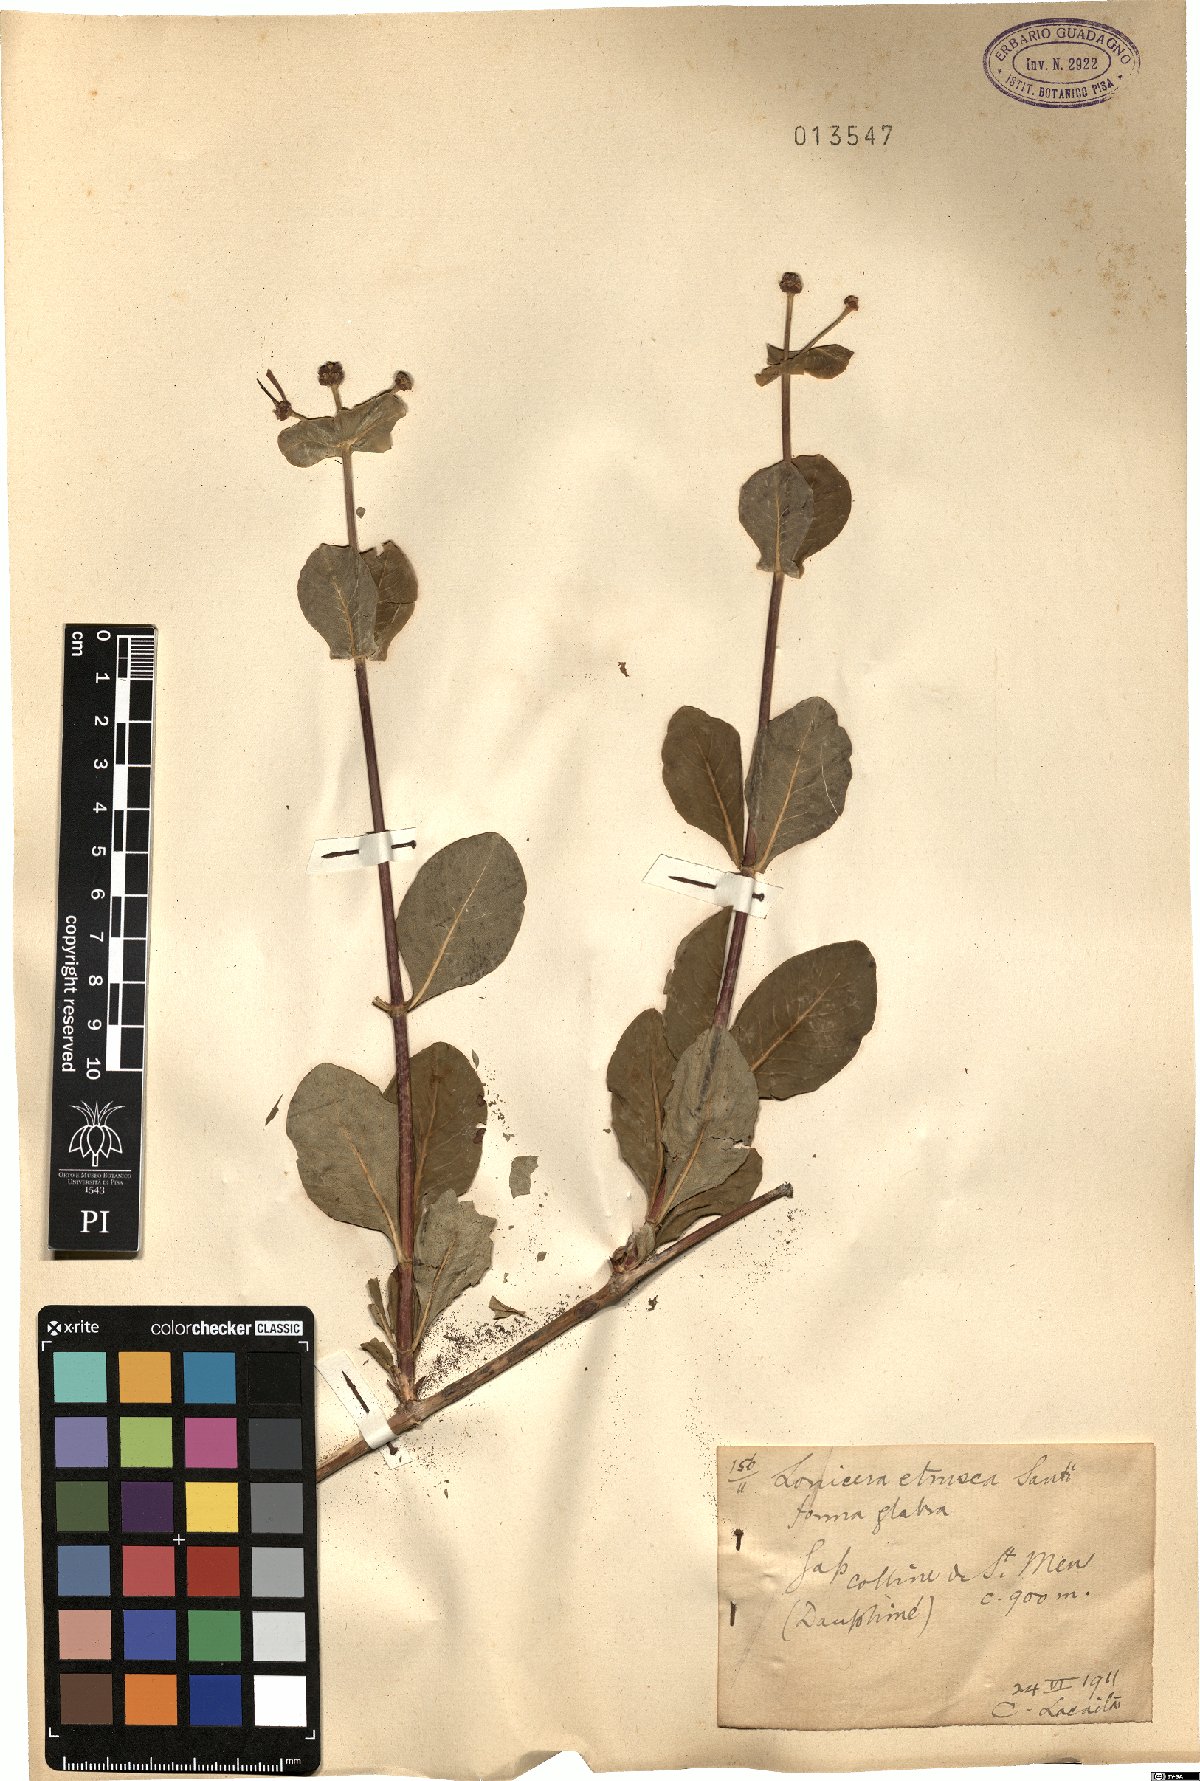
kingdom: Plantae
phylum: Tracheophyta
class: Magnoliopsida
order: Dipsacales
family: Caprifoliaceae
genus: Lonicera
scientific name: Lonicera etrusca
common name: Etruscan honeysuckle
